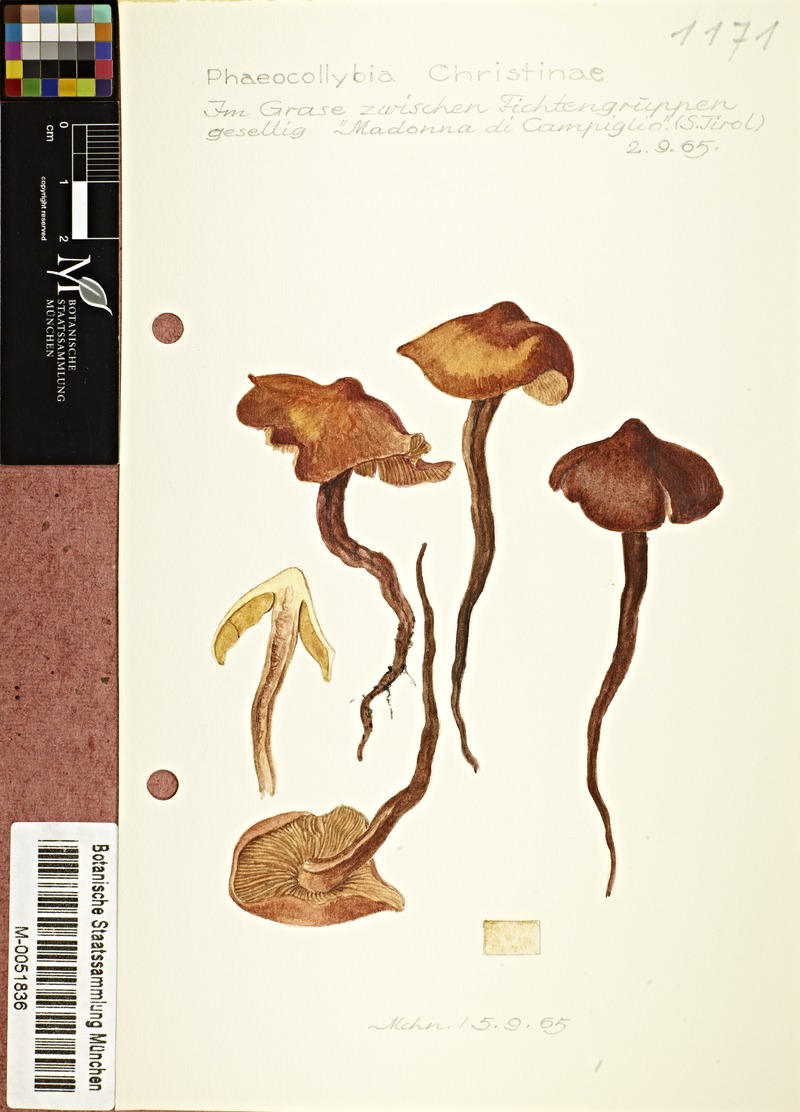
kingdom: Fungi
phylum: Basidiomycota
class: Agaricomycetes
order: Agaricales
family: Hymenogastraceae
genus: Phaeocollybia
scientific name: Phaeocollybia christinae
